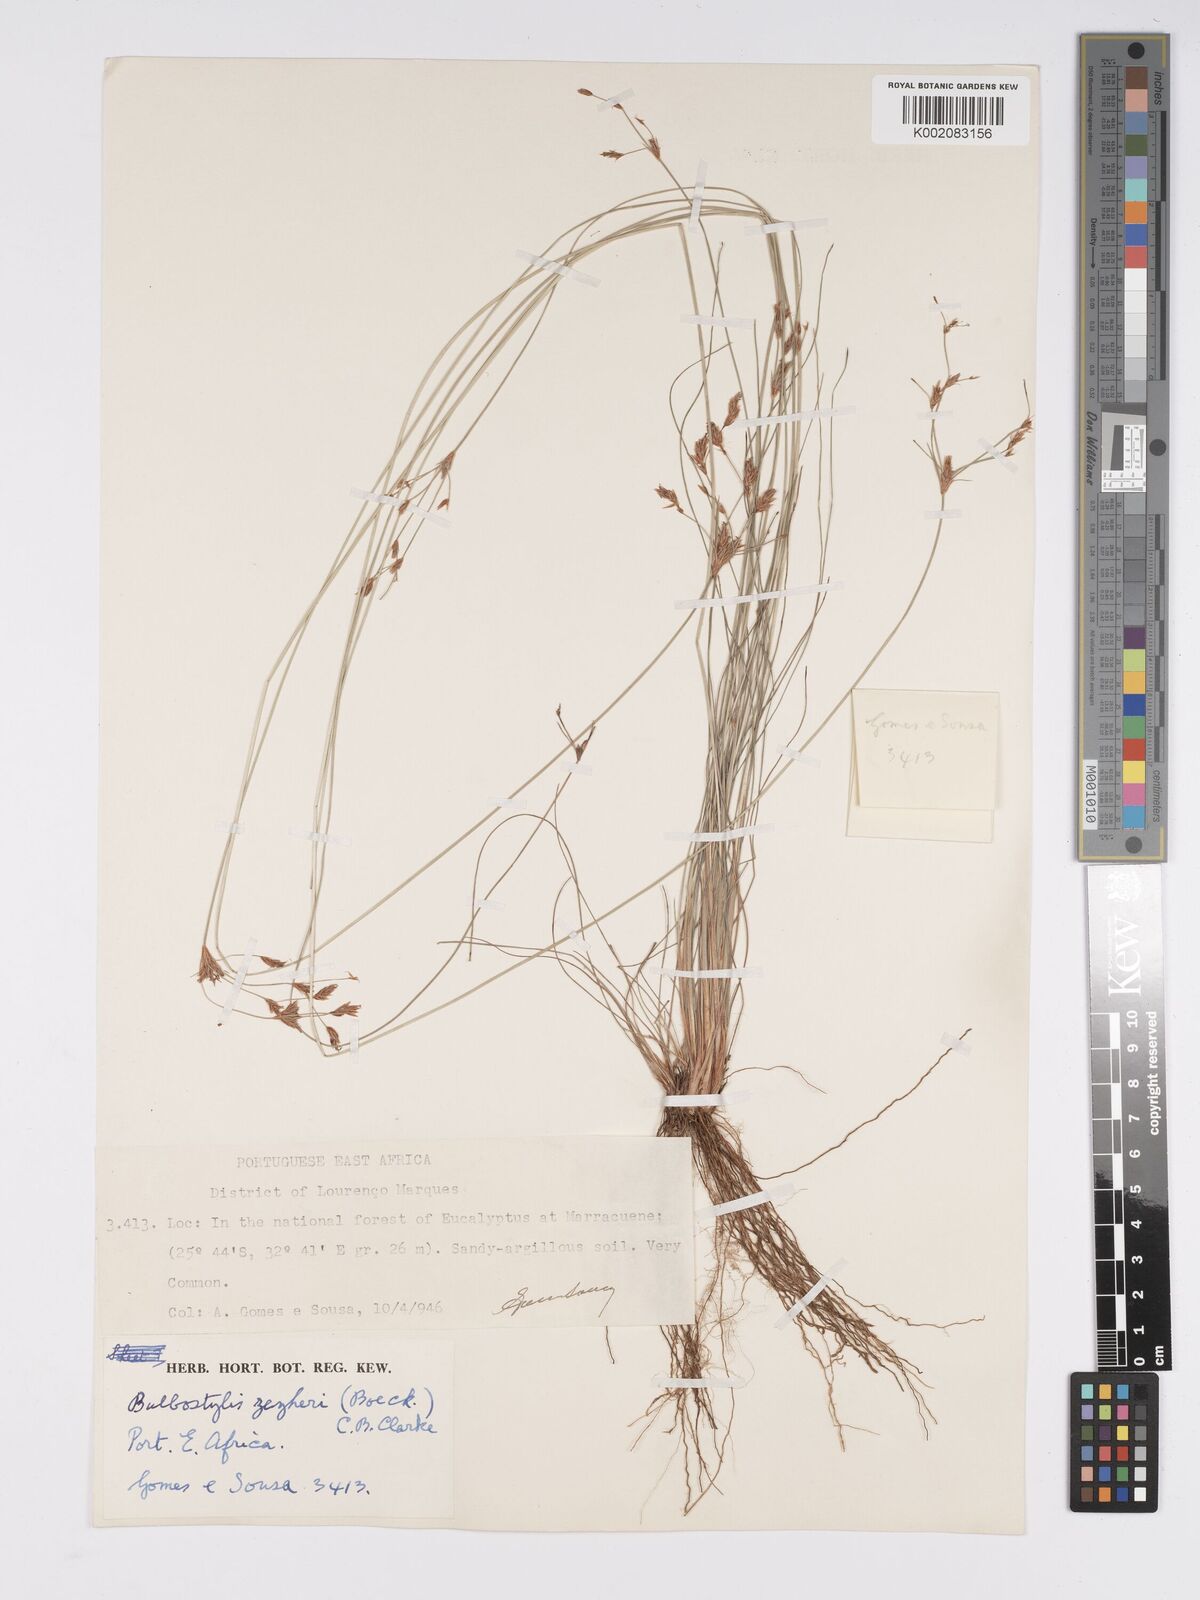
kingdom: Plantae
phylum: Tracheophyta
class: Liliopsida
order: Poales
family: Cyperaceae
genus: Bulbostylis
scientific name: Bulbostylis contexta
